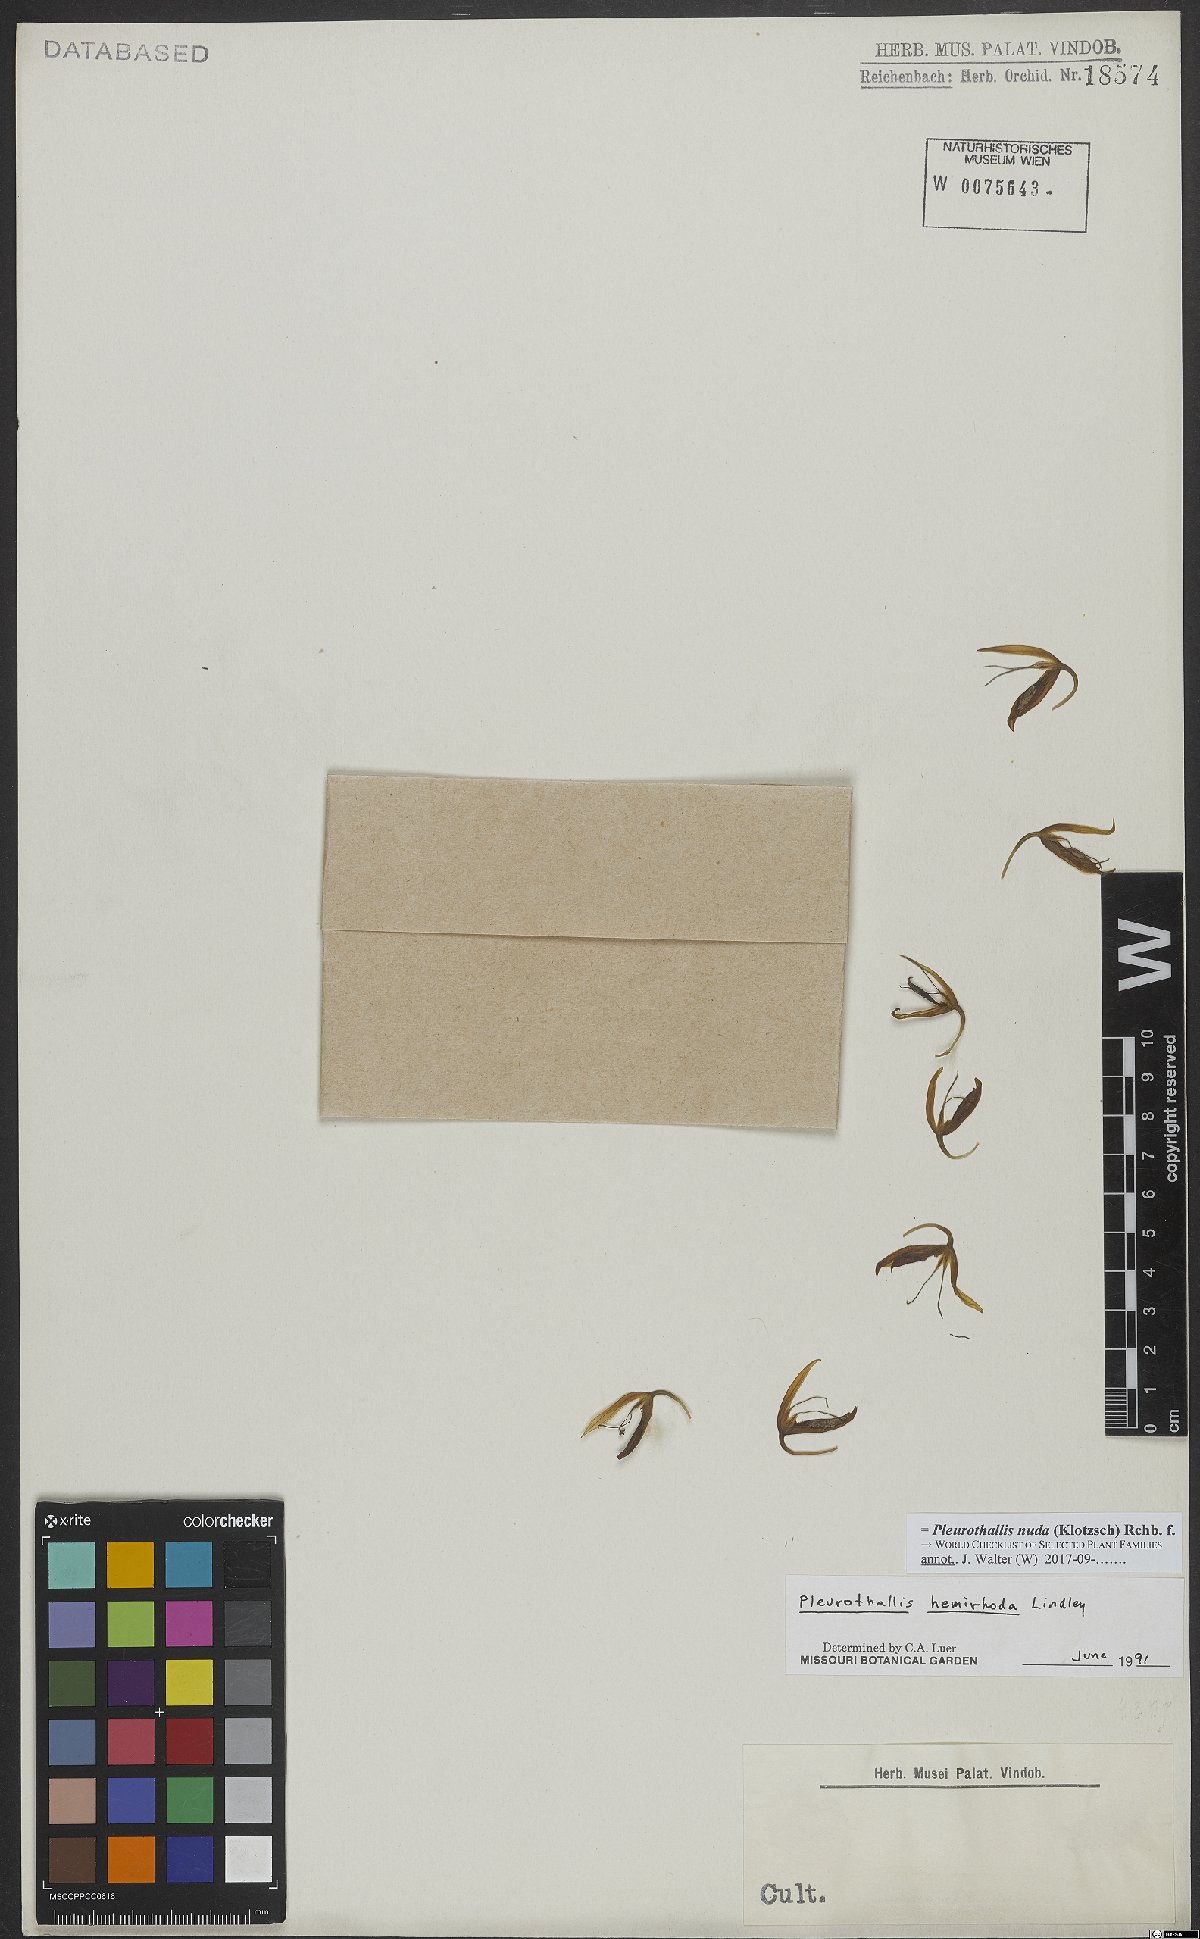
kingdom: Plantae
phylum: Tracheophyta
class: Liliopsida
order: Asparagales
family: Orchidaceae
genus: Pleurothallis
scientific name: Pleurothallis nuda
